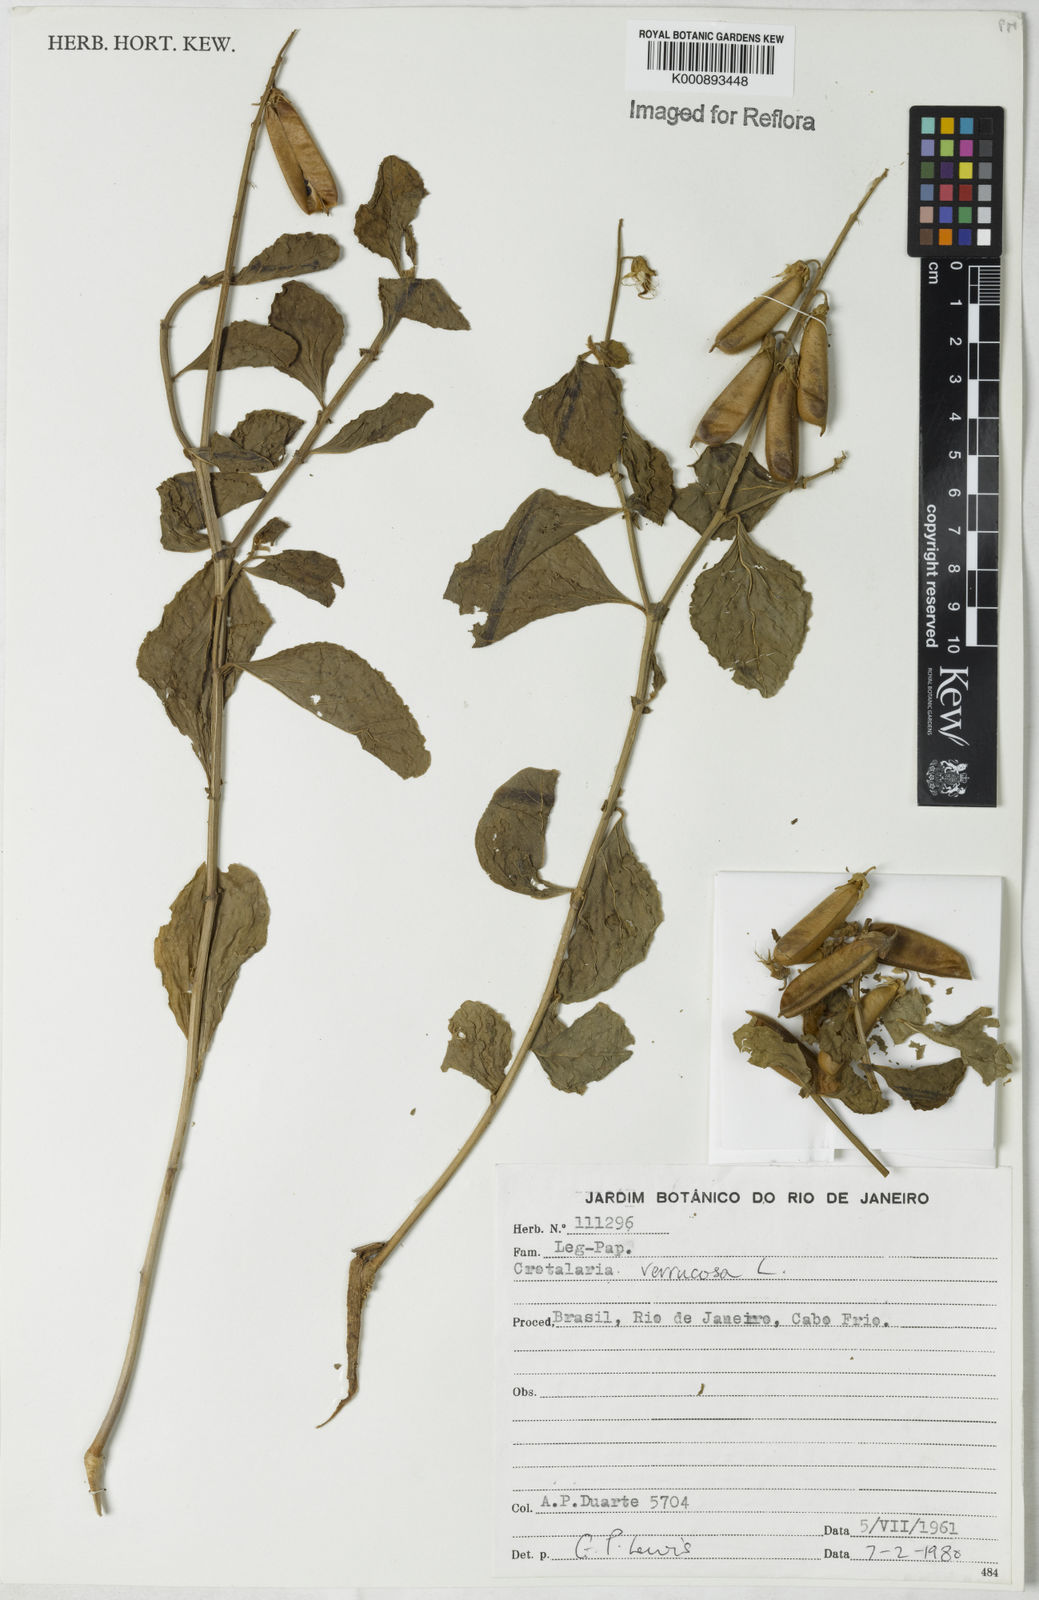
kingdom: Plantae
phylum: Tracheophyta
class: Magnoliopsida
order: Fabales
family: Fabaceae
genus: Crotalaria
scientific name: Crotalaria verrucosa
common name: Blue rattlesnake
